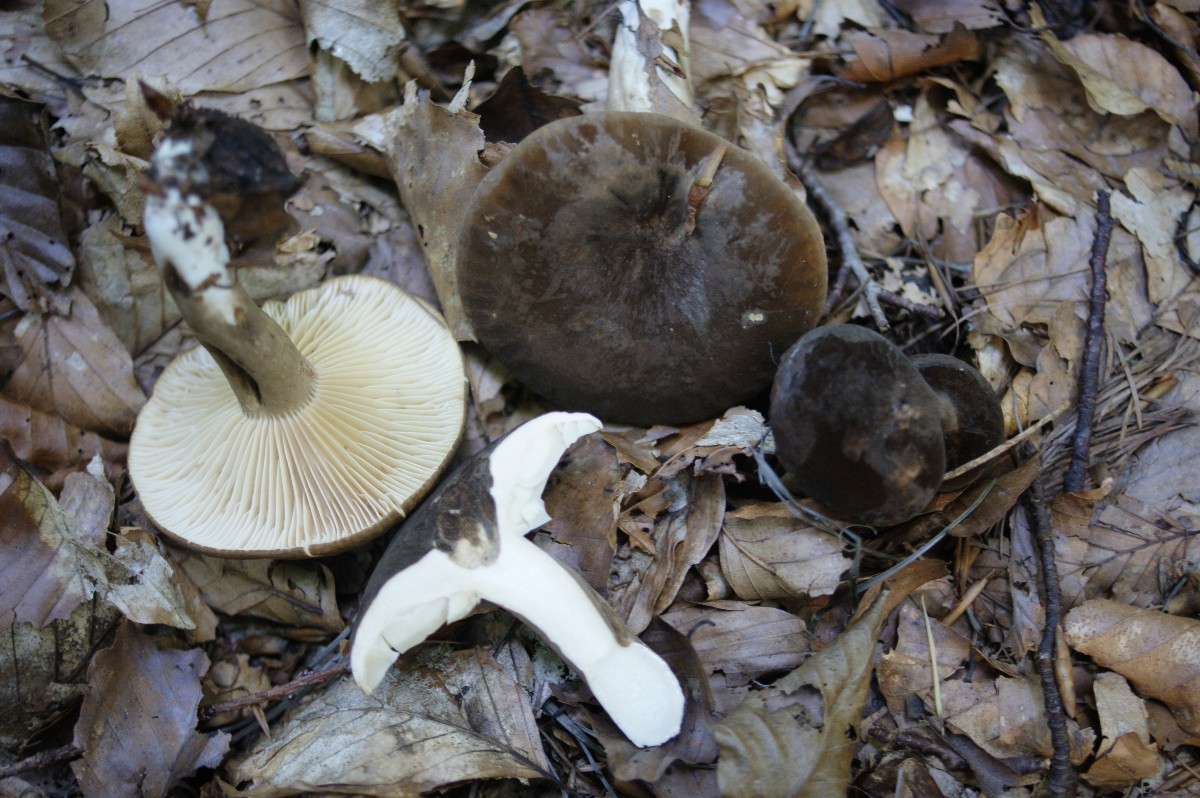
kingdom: Fungi
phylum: Basidiomycota
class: Agaricomycetes
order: Russulales
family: Russulaceae
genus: Lactarius
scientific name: Lactarius romagnesii
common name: fjernbladet mælkehat
